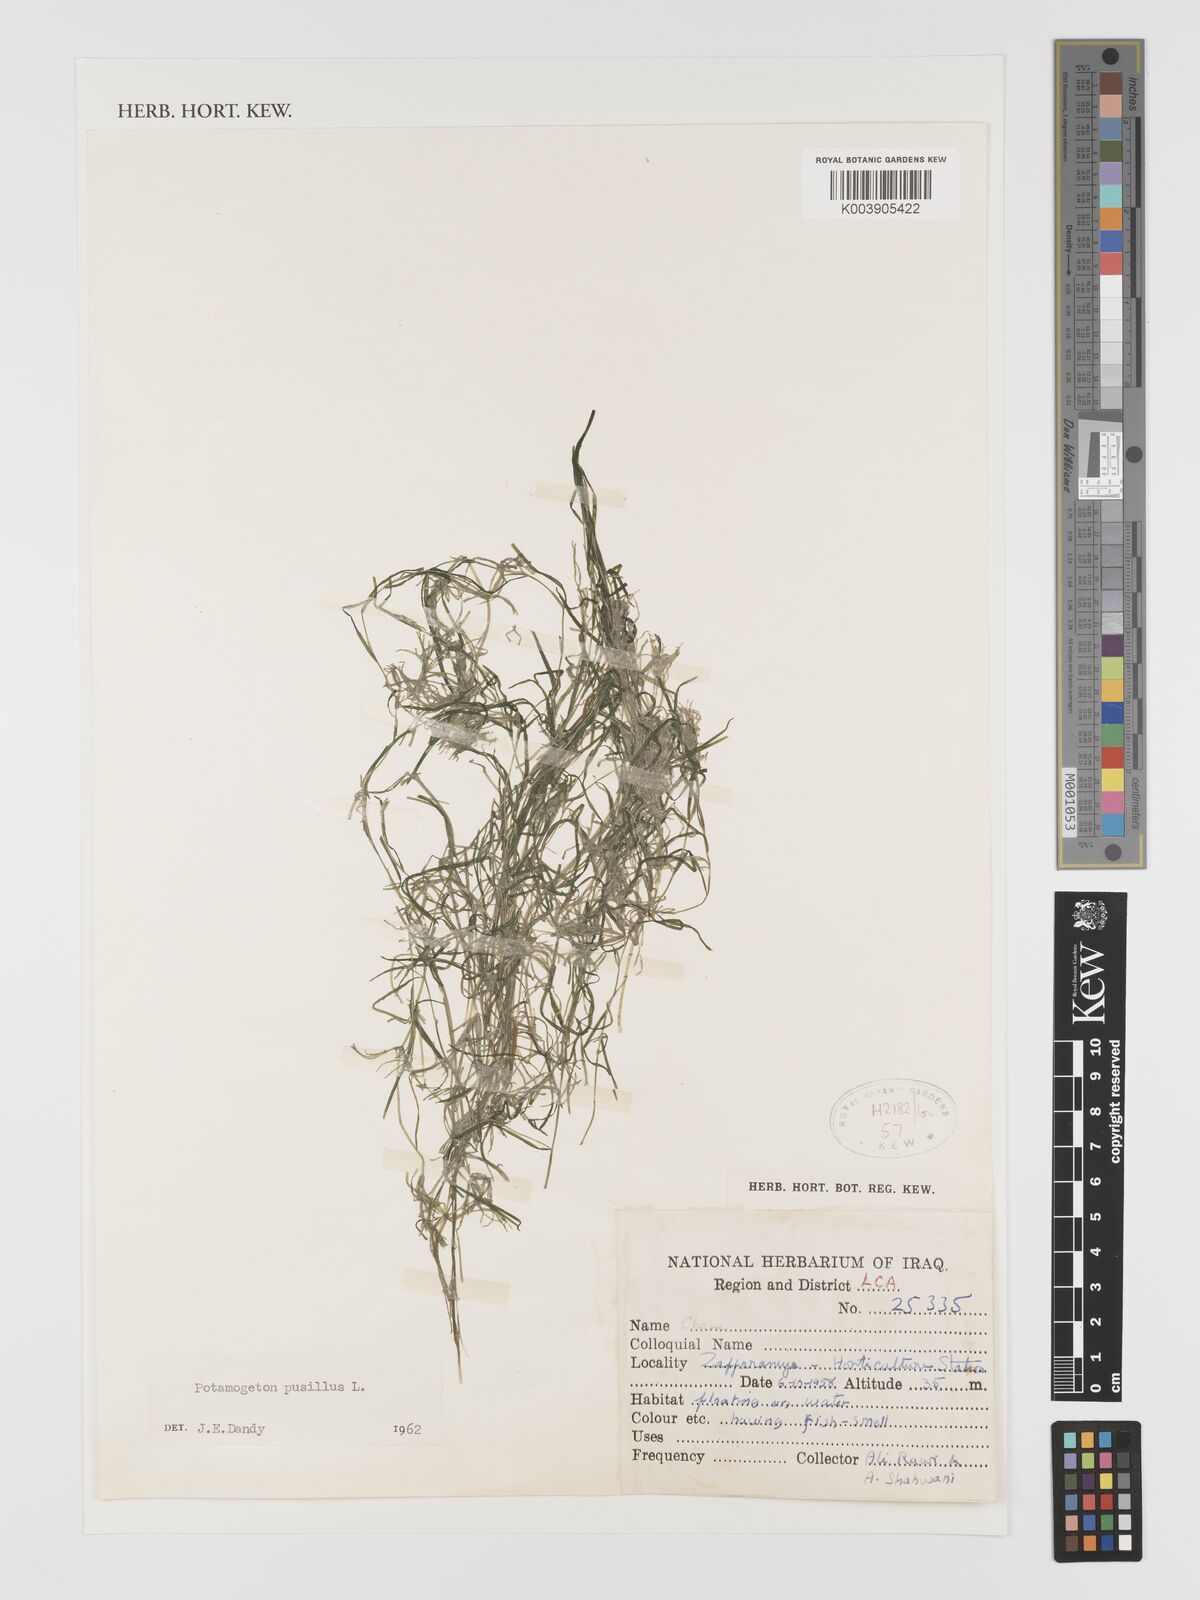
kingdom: Plantae
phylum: Tracheophyta
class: Liliopsida
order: Alismatales
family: Potamogetonaceae
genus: Potamogeton
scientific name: Potamogeton pusillus
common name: Lesser pondweed
